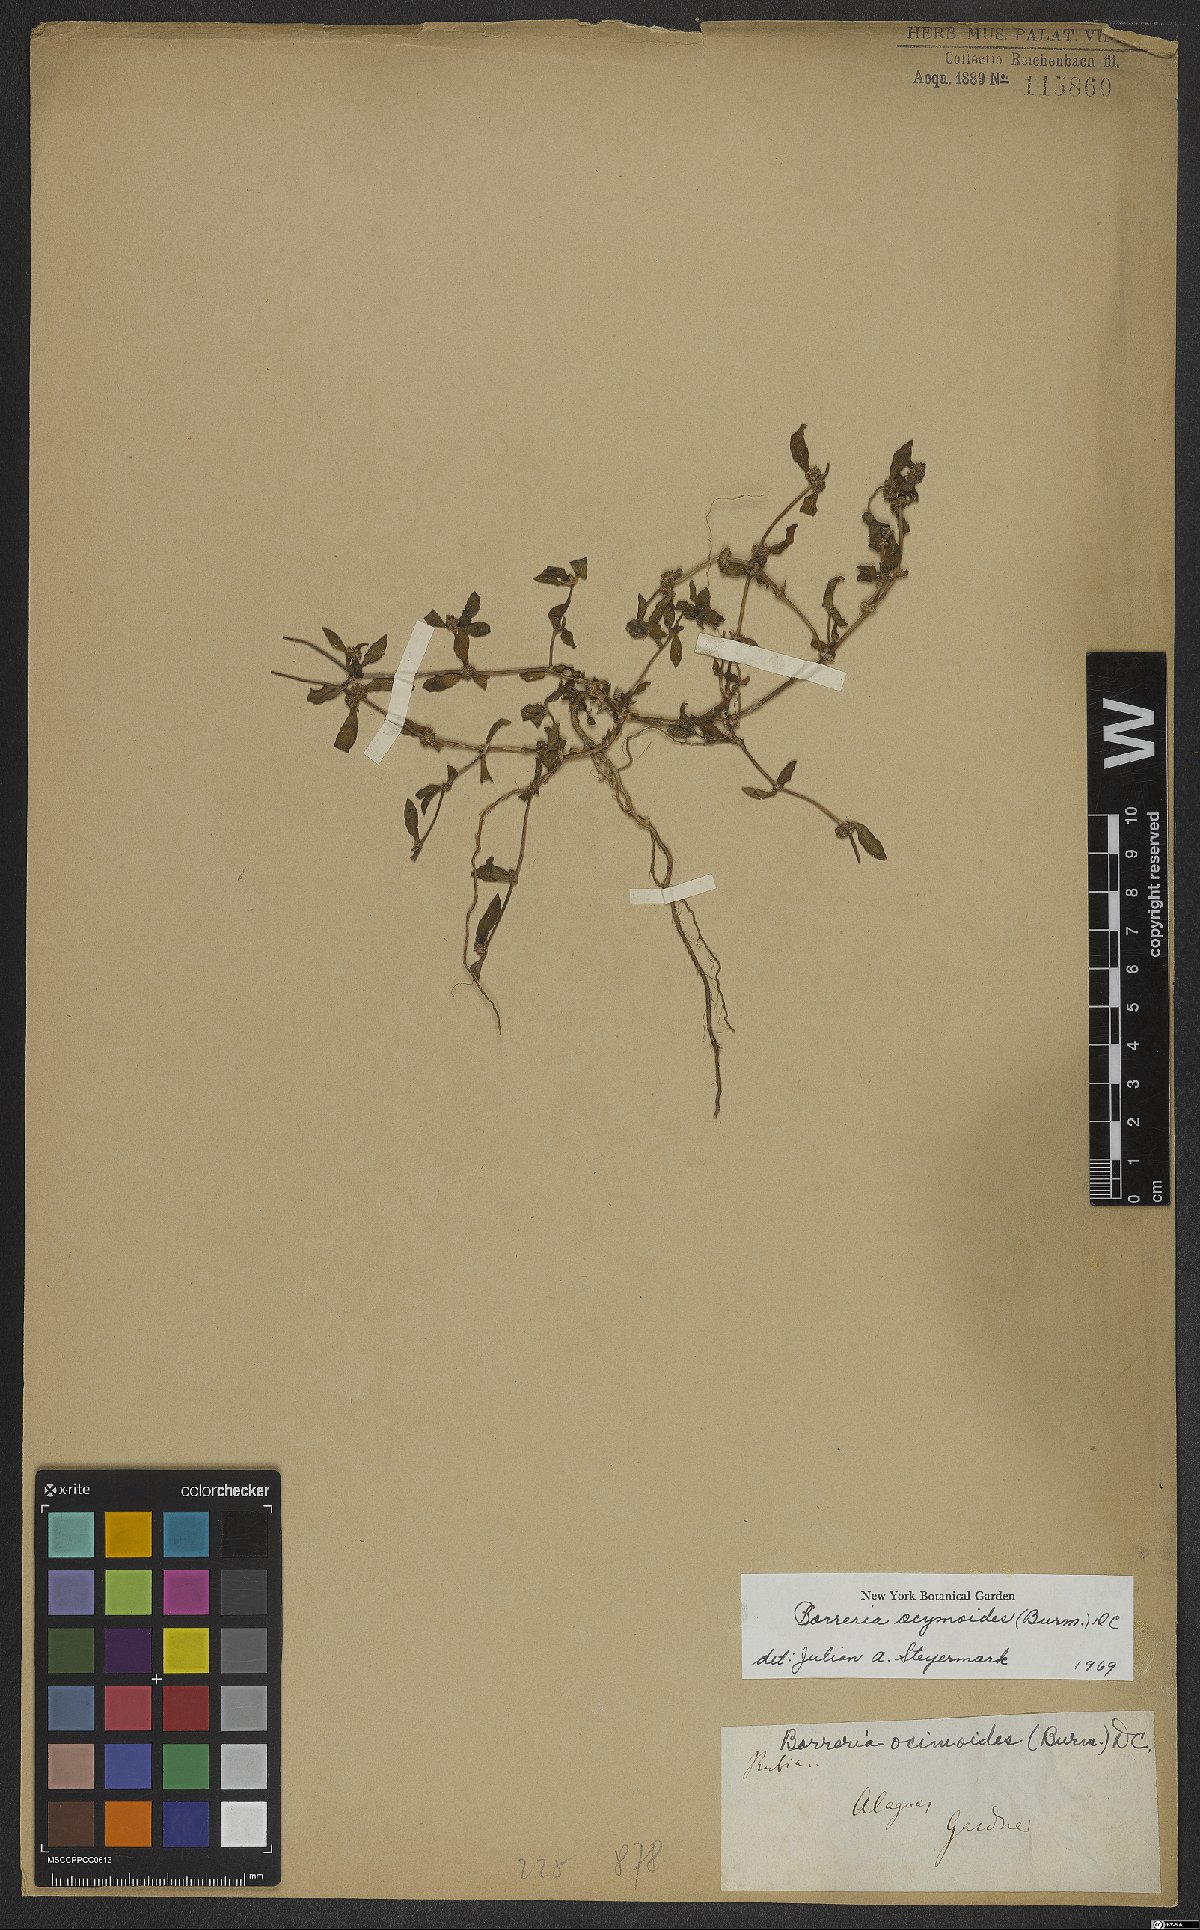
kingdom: Plantae
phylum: Tracheophyta
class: Magnoliopsida
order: Gentianales
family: Rubiaceae
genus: Spermacoce
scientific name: Spermacoce ocymoides
